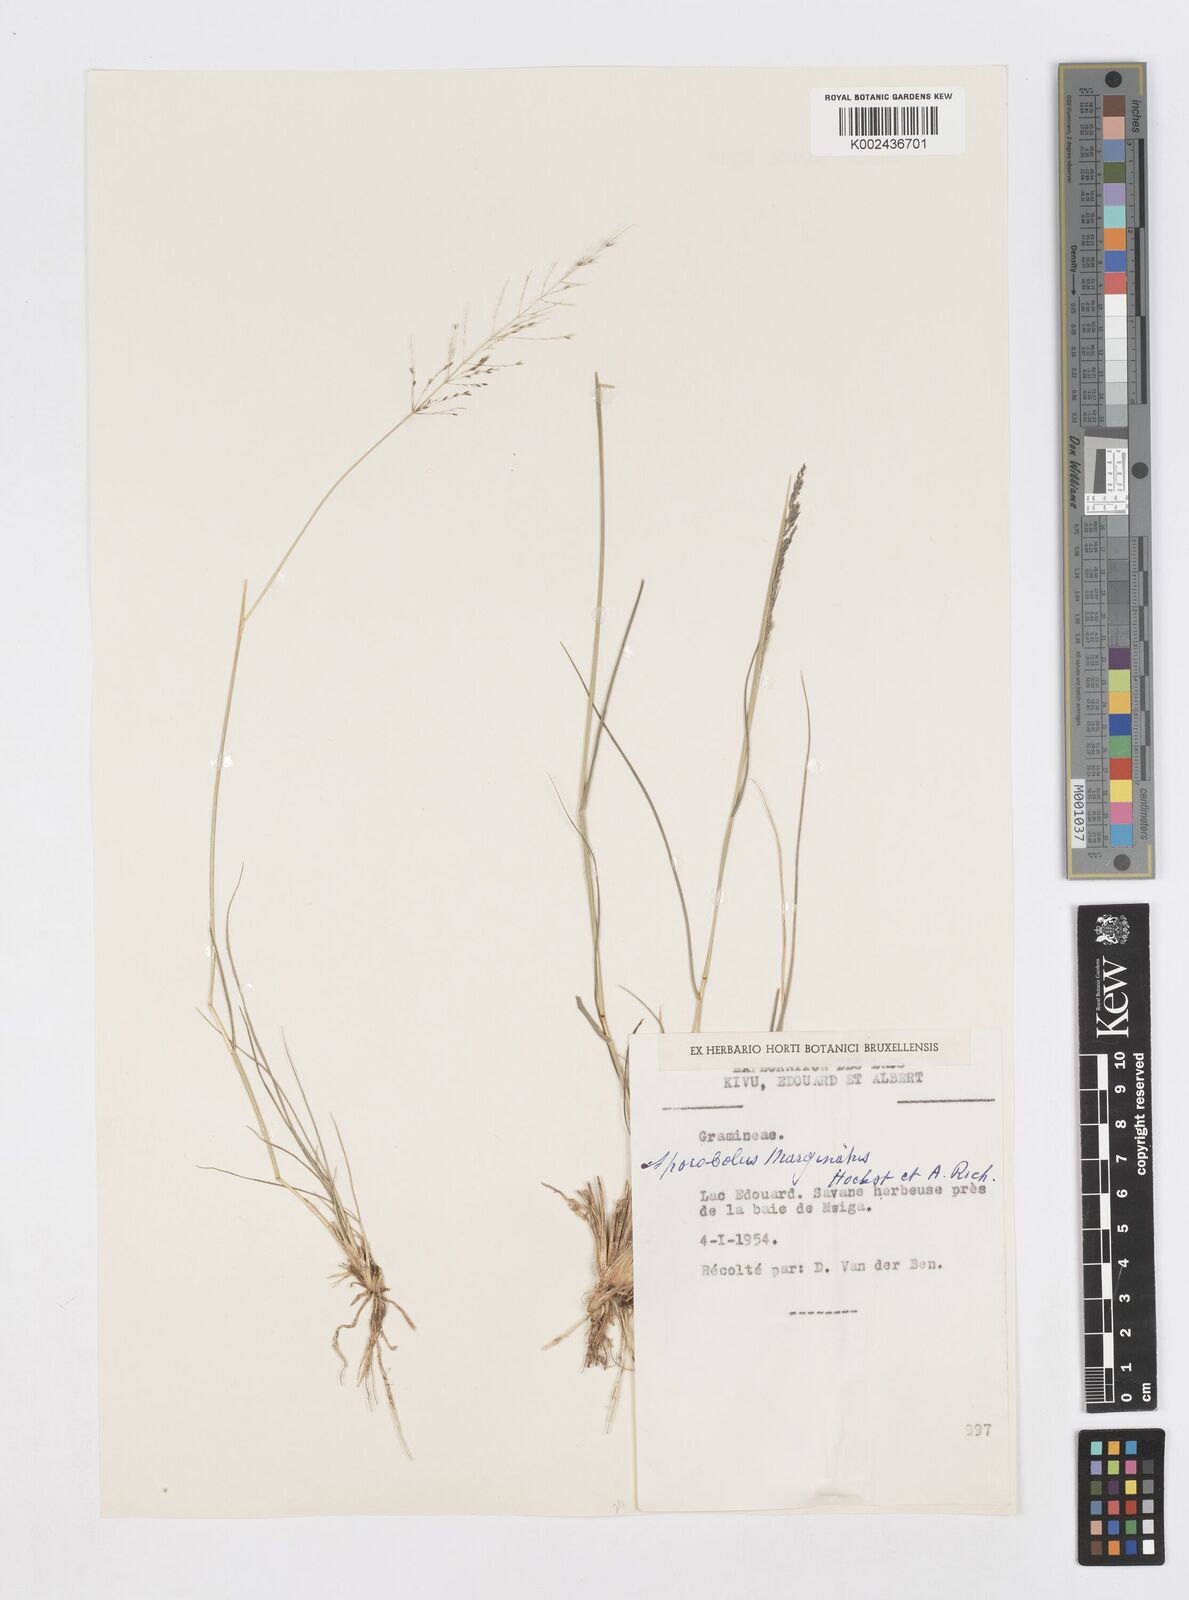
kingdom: Plantae
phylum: Tracheophyta
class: Liliopsida
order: Poales
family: Poaceae
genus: Sporobolus
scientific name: Sporobolus ioclados
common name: Pan dropseed
